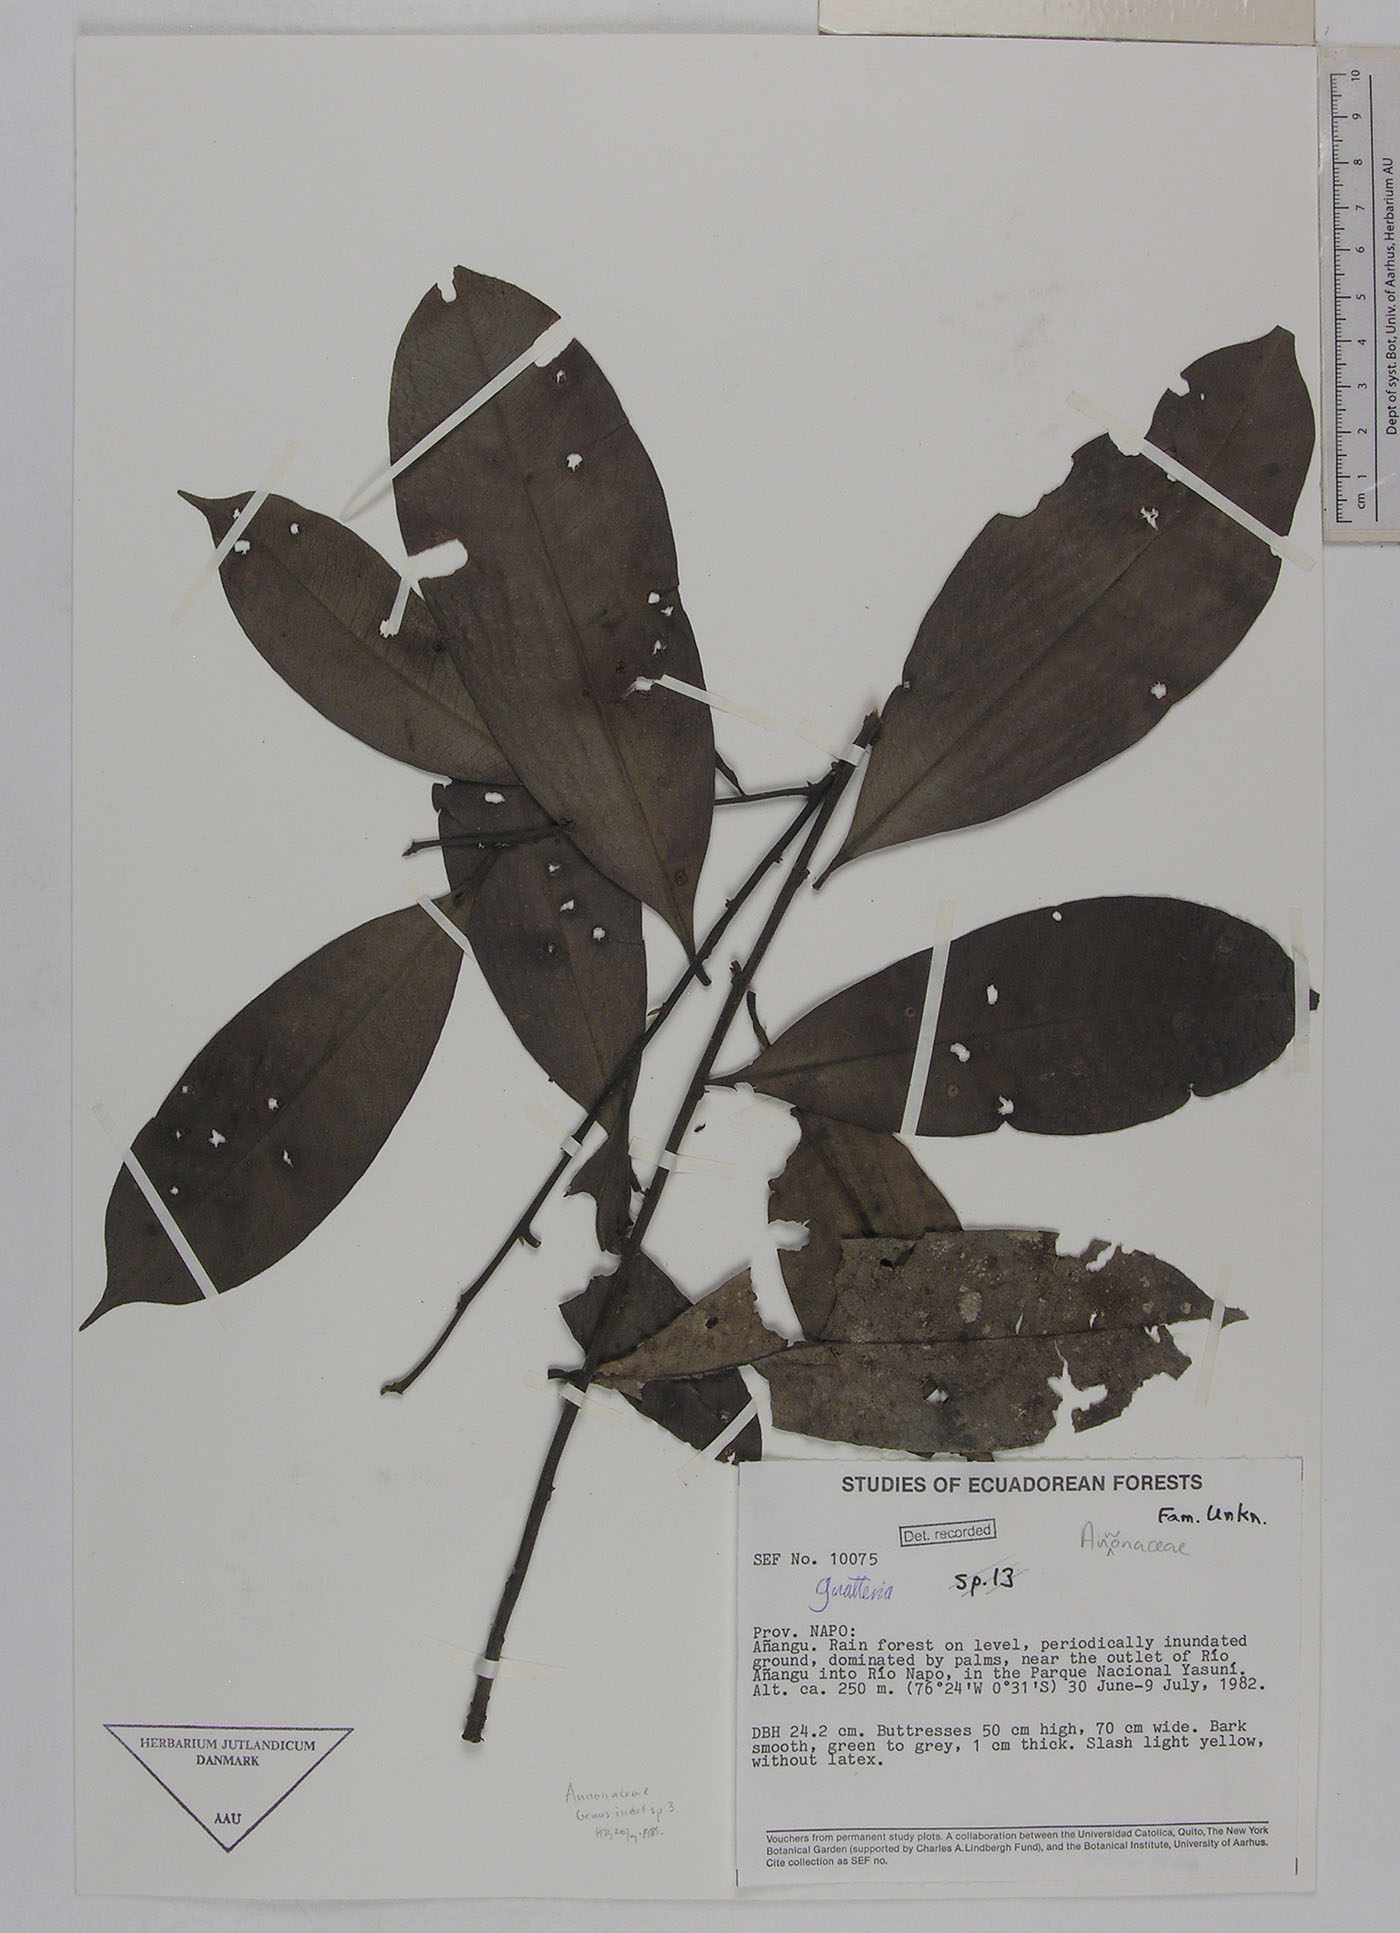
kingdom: Plantae
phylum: Tracheophyta
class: Magnoliopsida
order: Magnoliales
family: Annonaceae
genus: Guatteria
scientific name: Guatteria modesta
